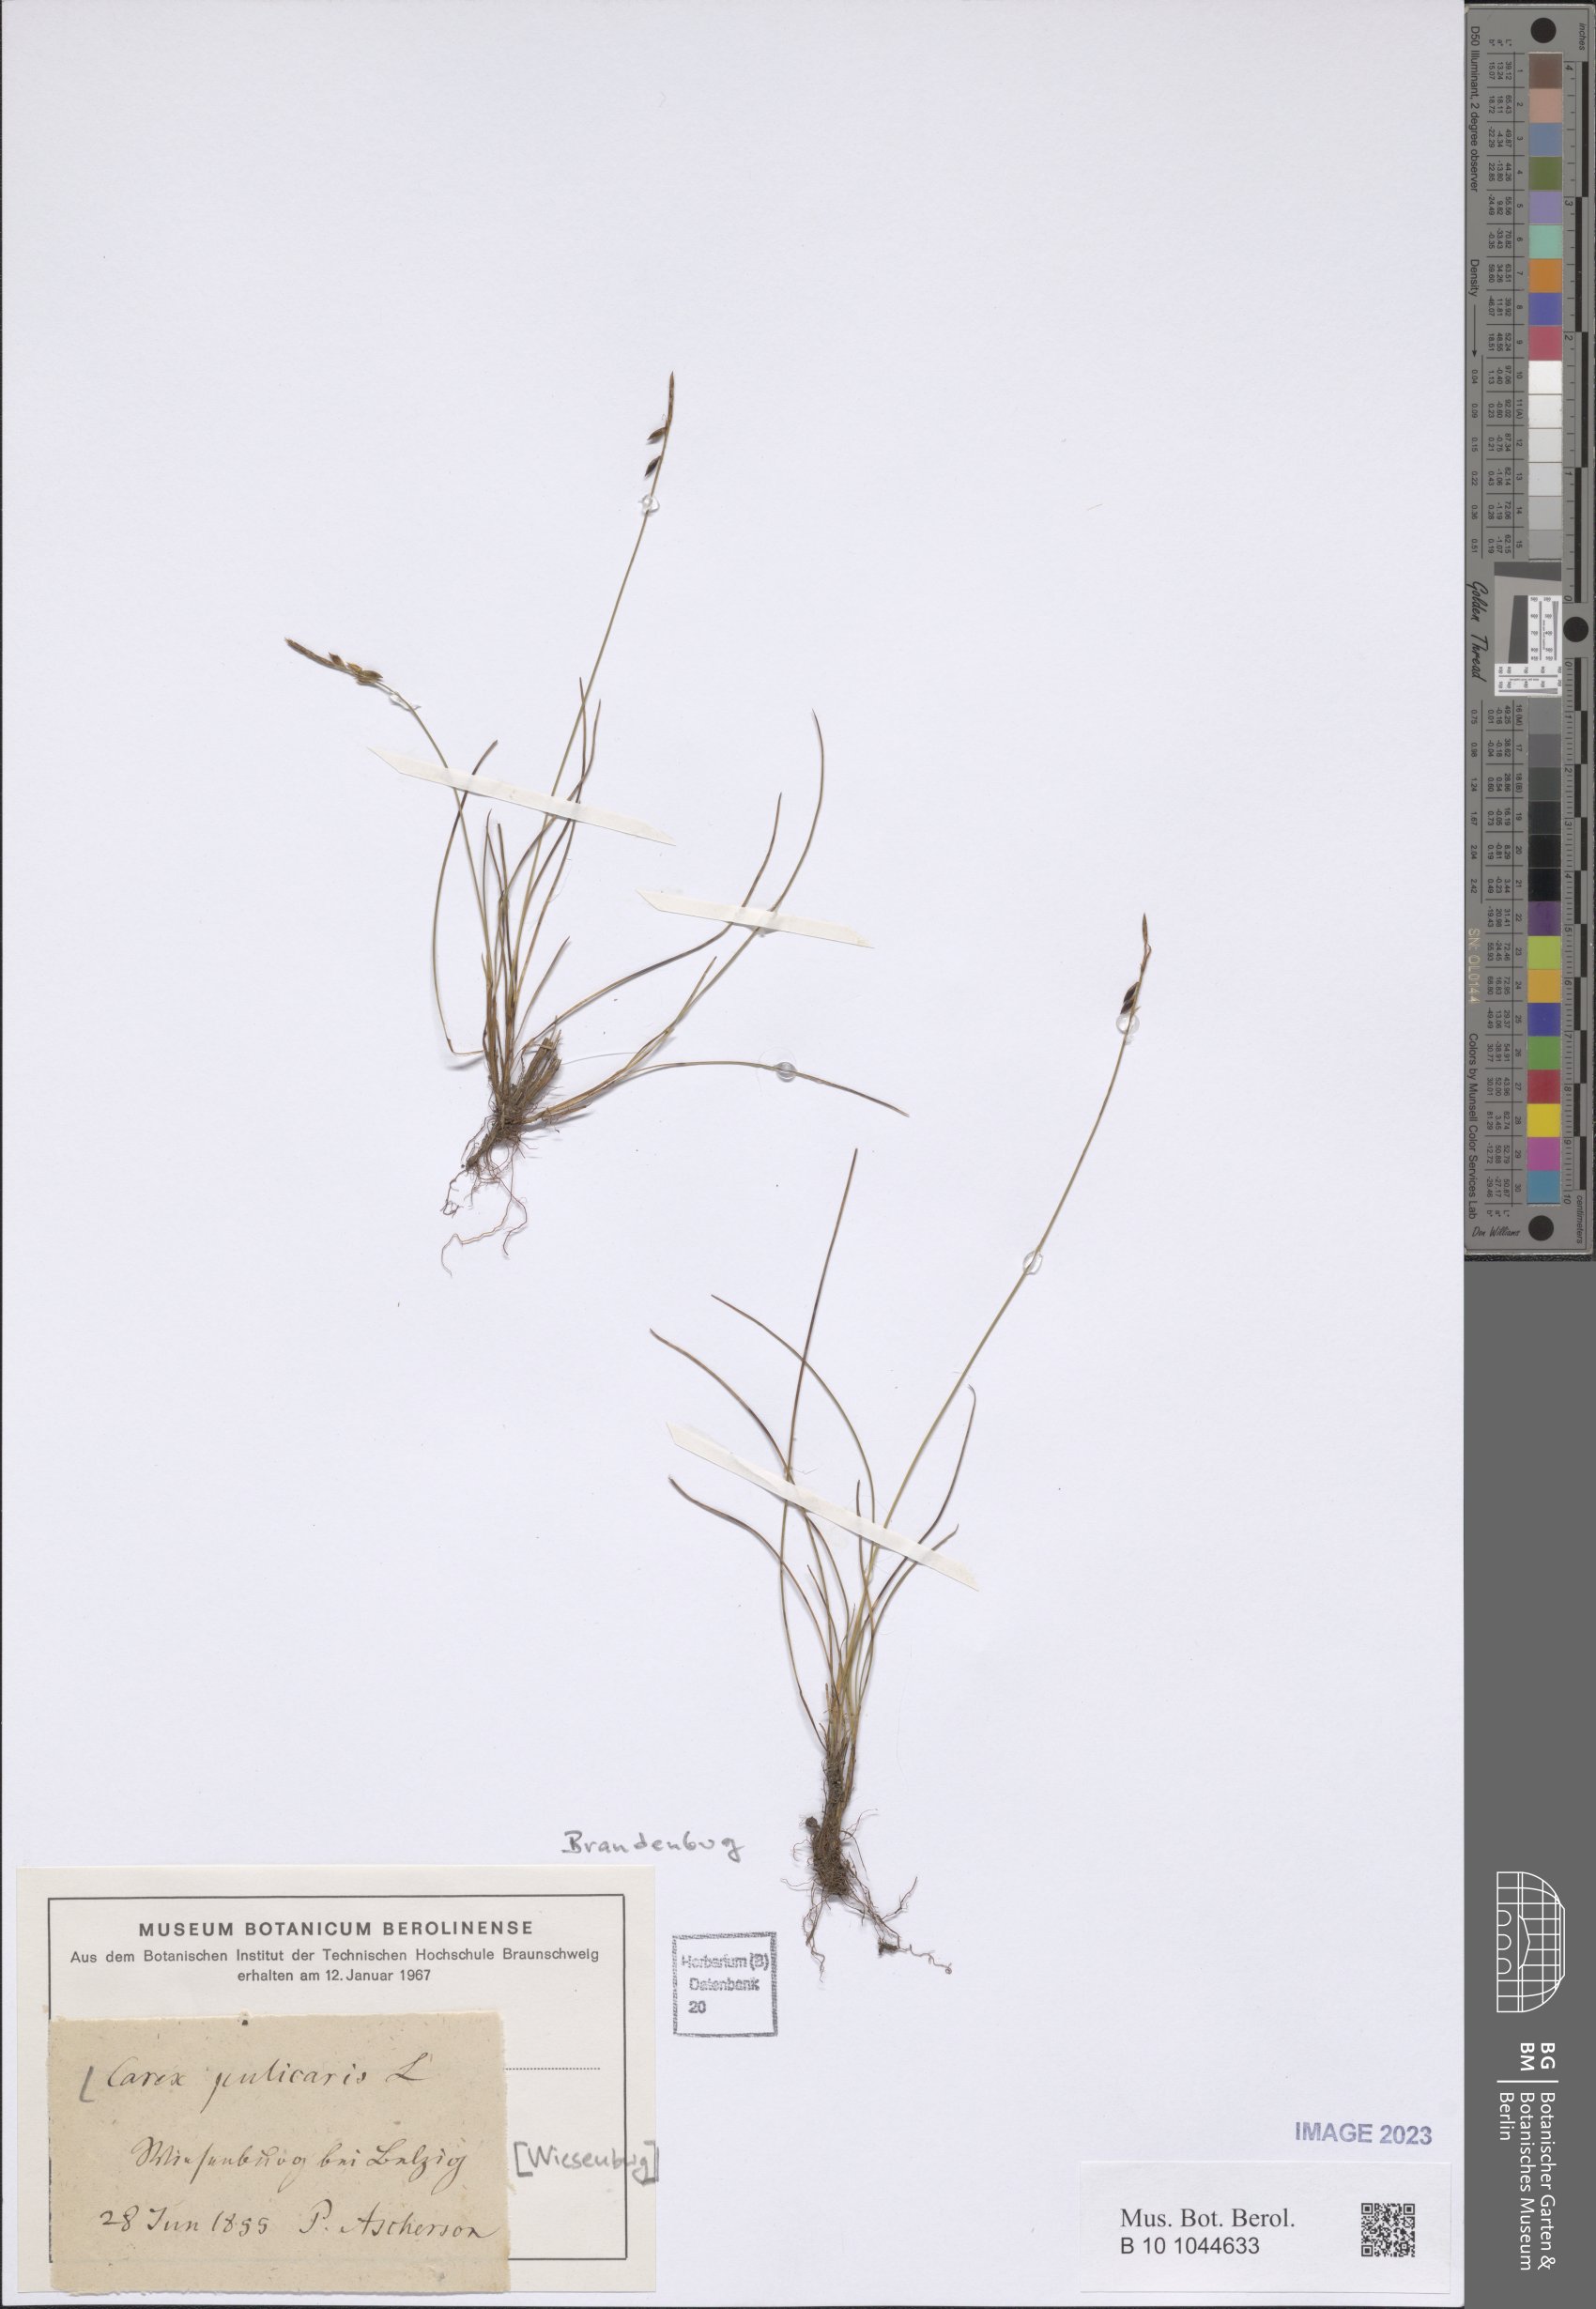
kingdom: Plantae
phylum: Tracheophyta
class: Liliopsida
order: Poales
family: Cyperaceae
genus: Carex
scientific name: Carex pulicaris
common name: Flea sedge
